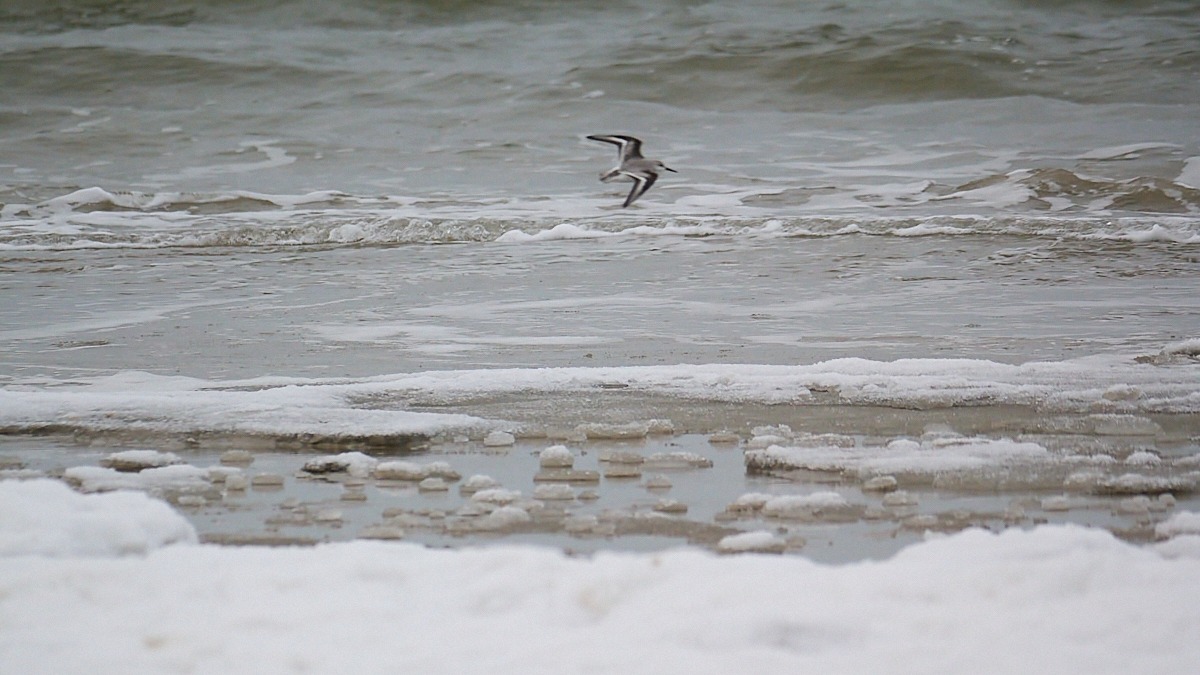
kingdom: Animalia
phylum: Chordata
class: Aves
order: Charadriiformes
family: Scolopacidae
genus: Calidris
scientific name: Calidris alba
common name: Sandløber
